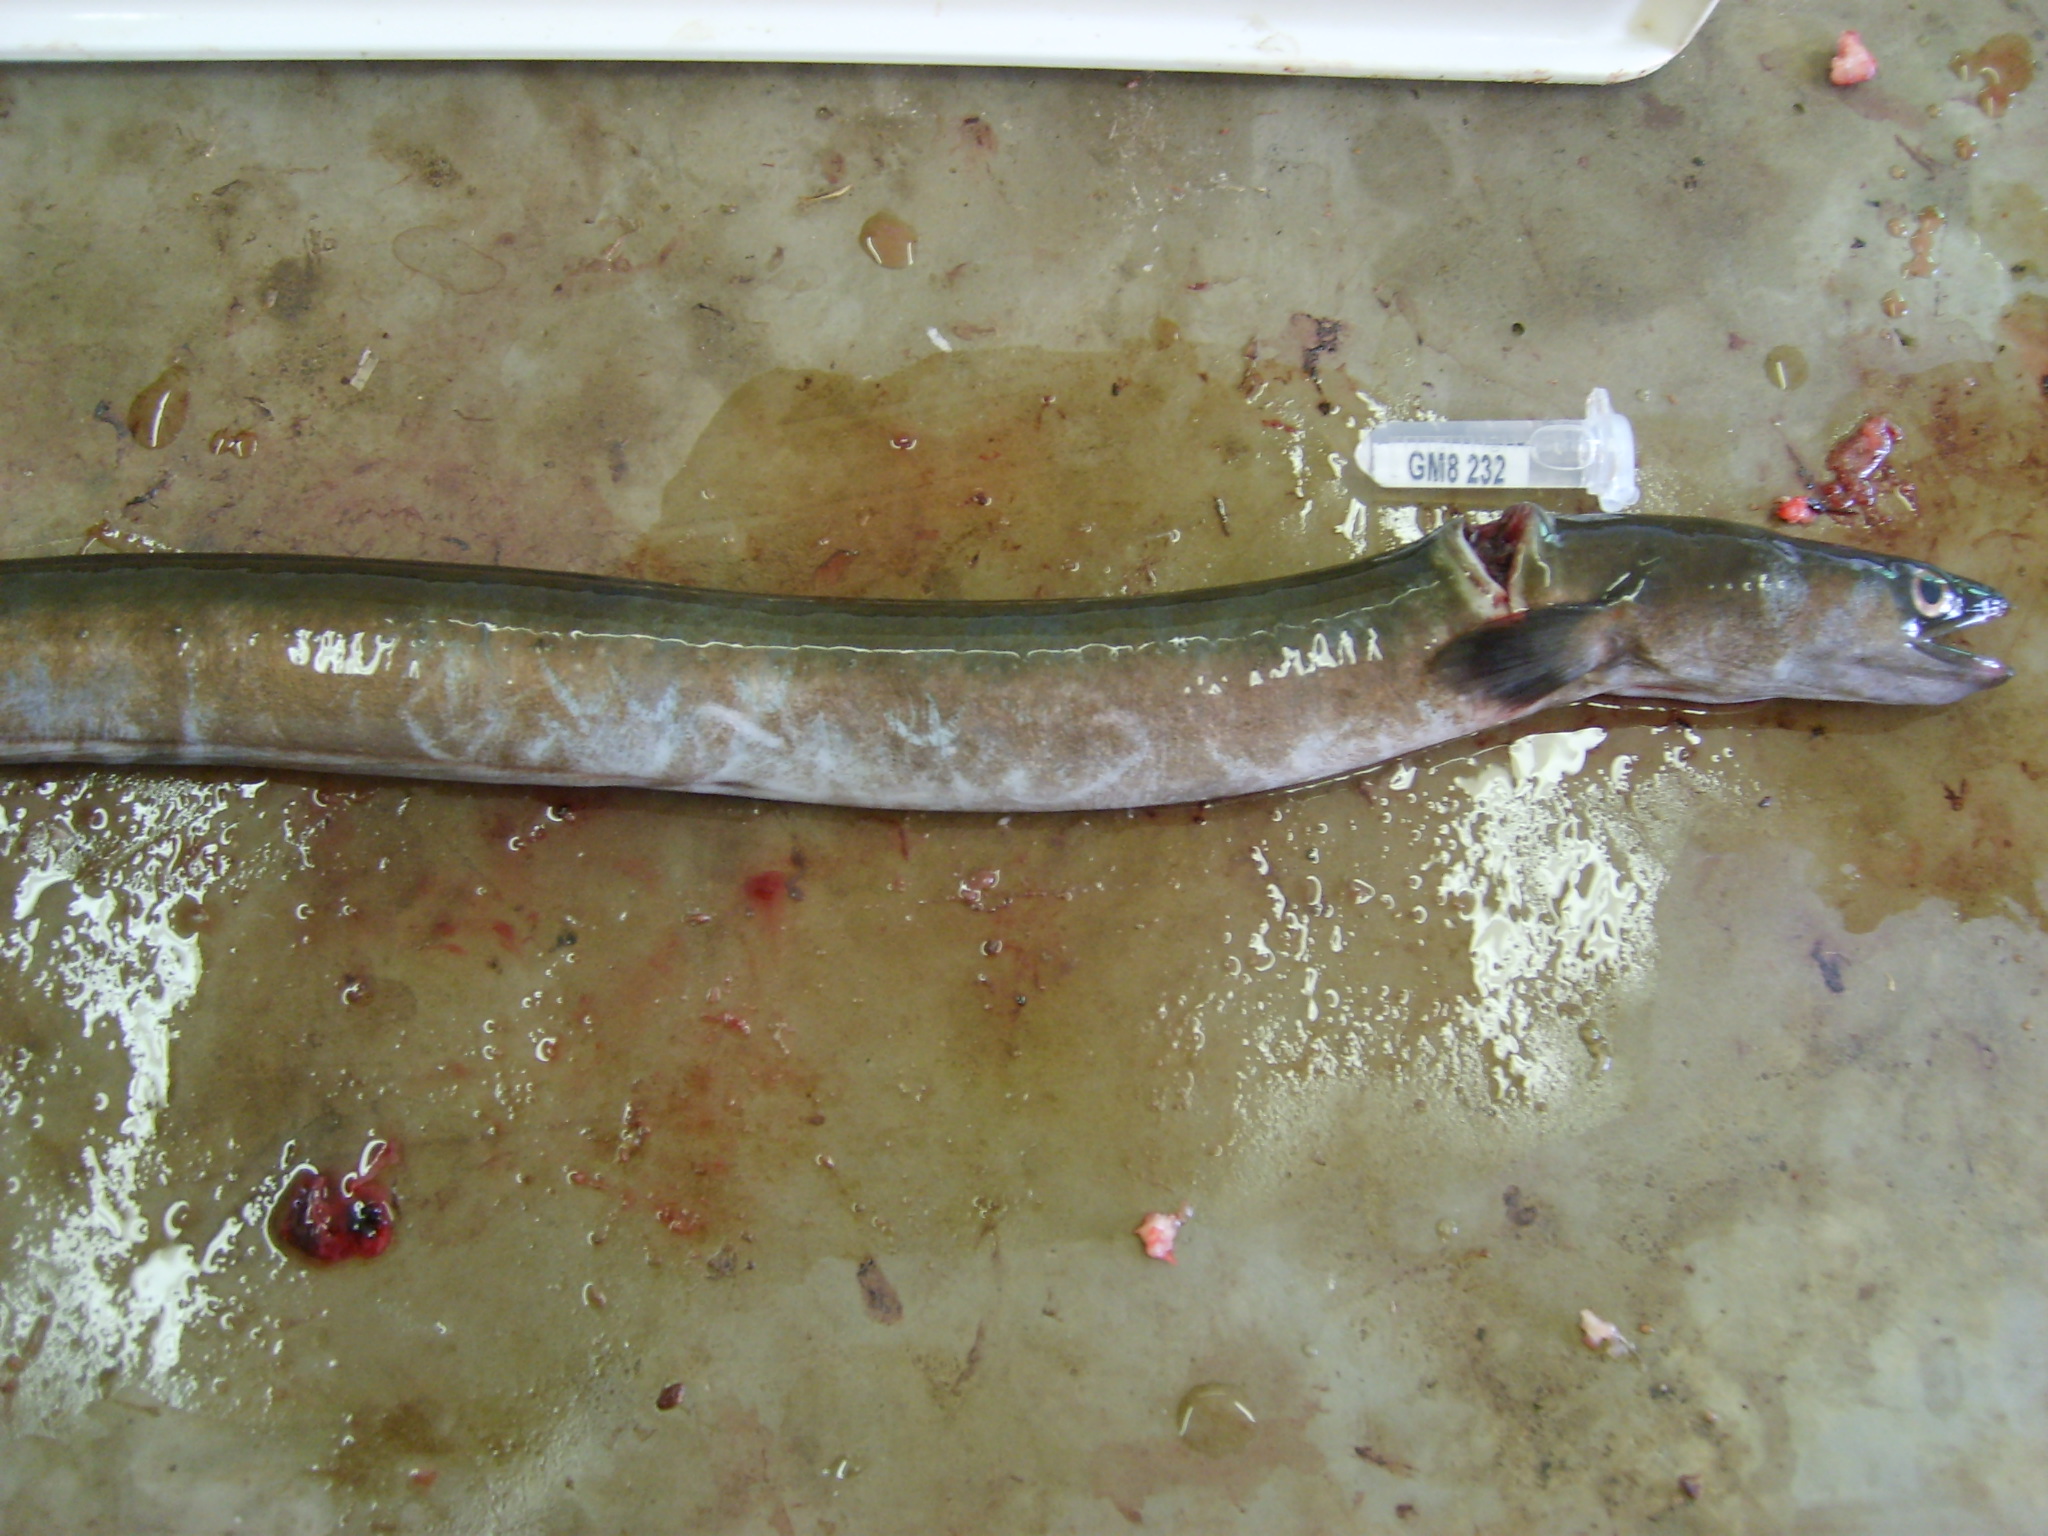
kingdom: Animalia
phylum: Chordata
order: Anguilliformes
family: Anguillidae
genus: Anguilla
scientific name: Anguilla mossambica
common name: African longfin eel
